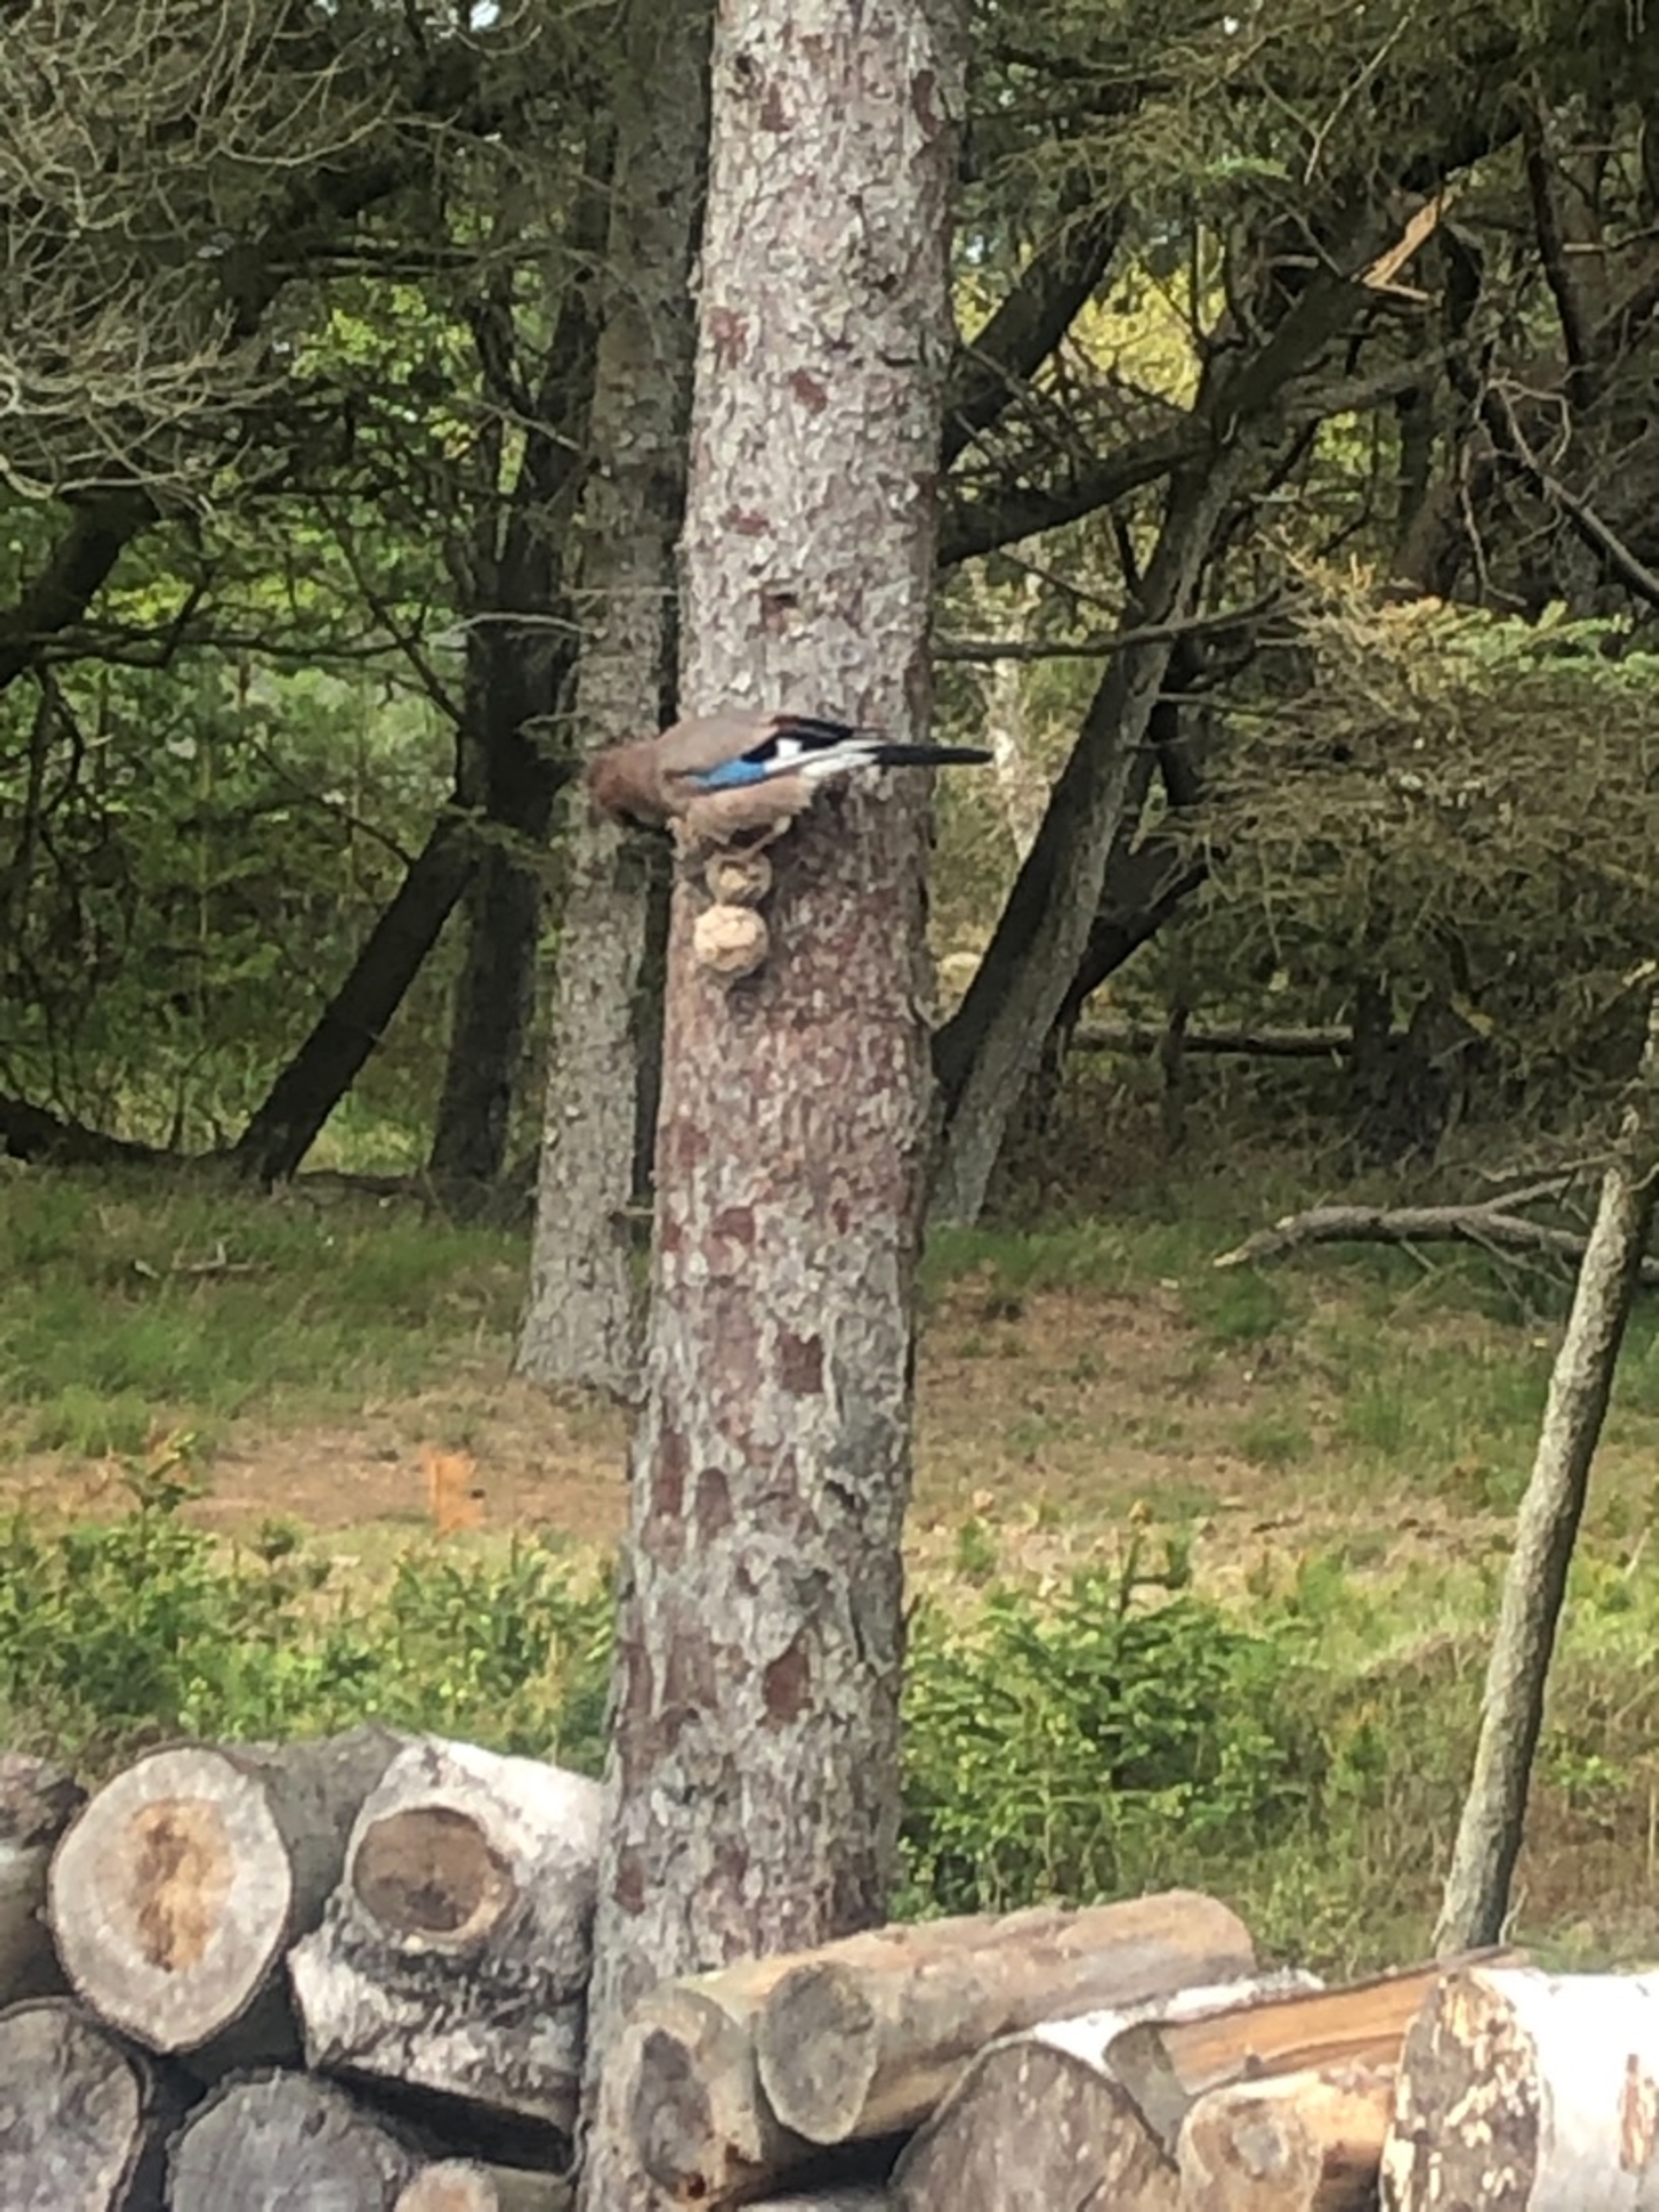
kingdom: Animalia
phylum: Chordata
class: Aves
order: Passeriformes
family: Corvidae
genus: Garrulus
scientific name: Garrulus glandarius
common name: Skovskade
